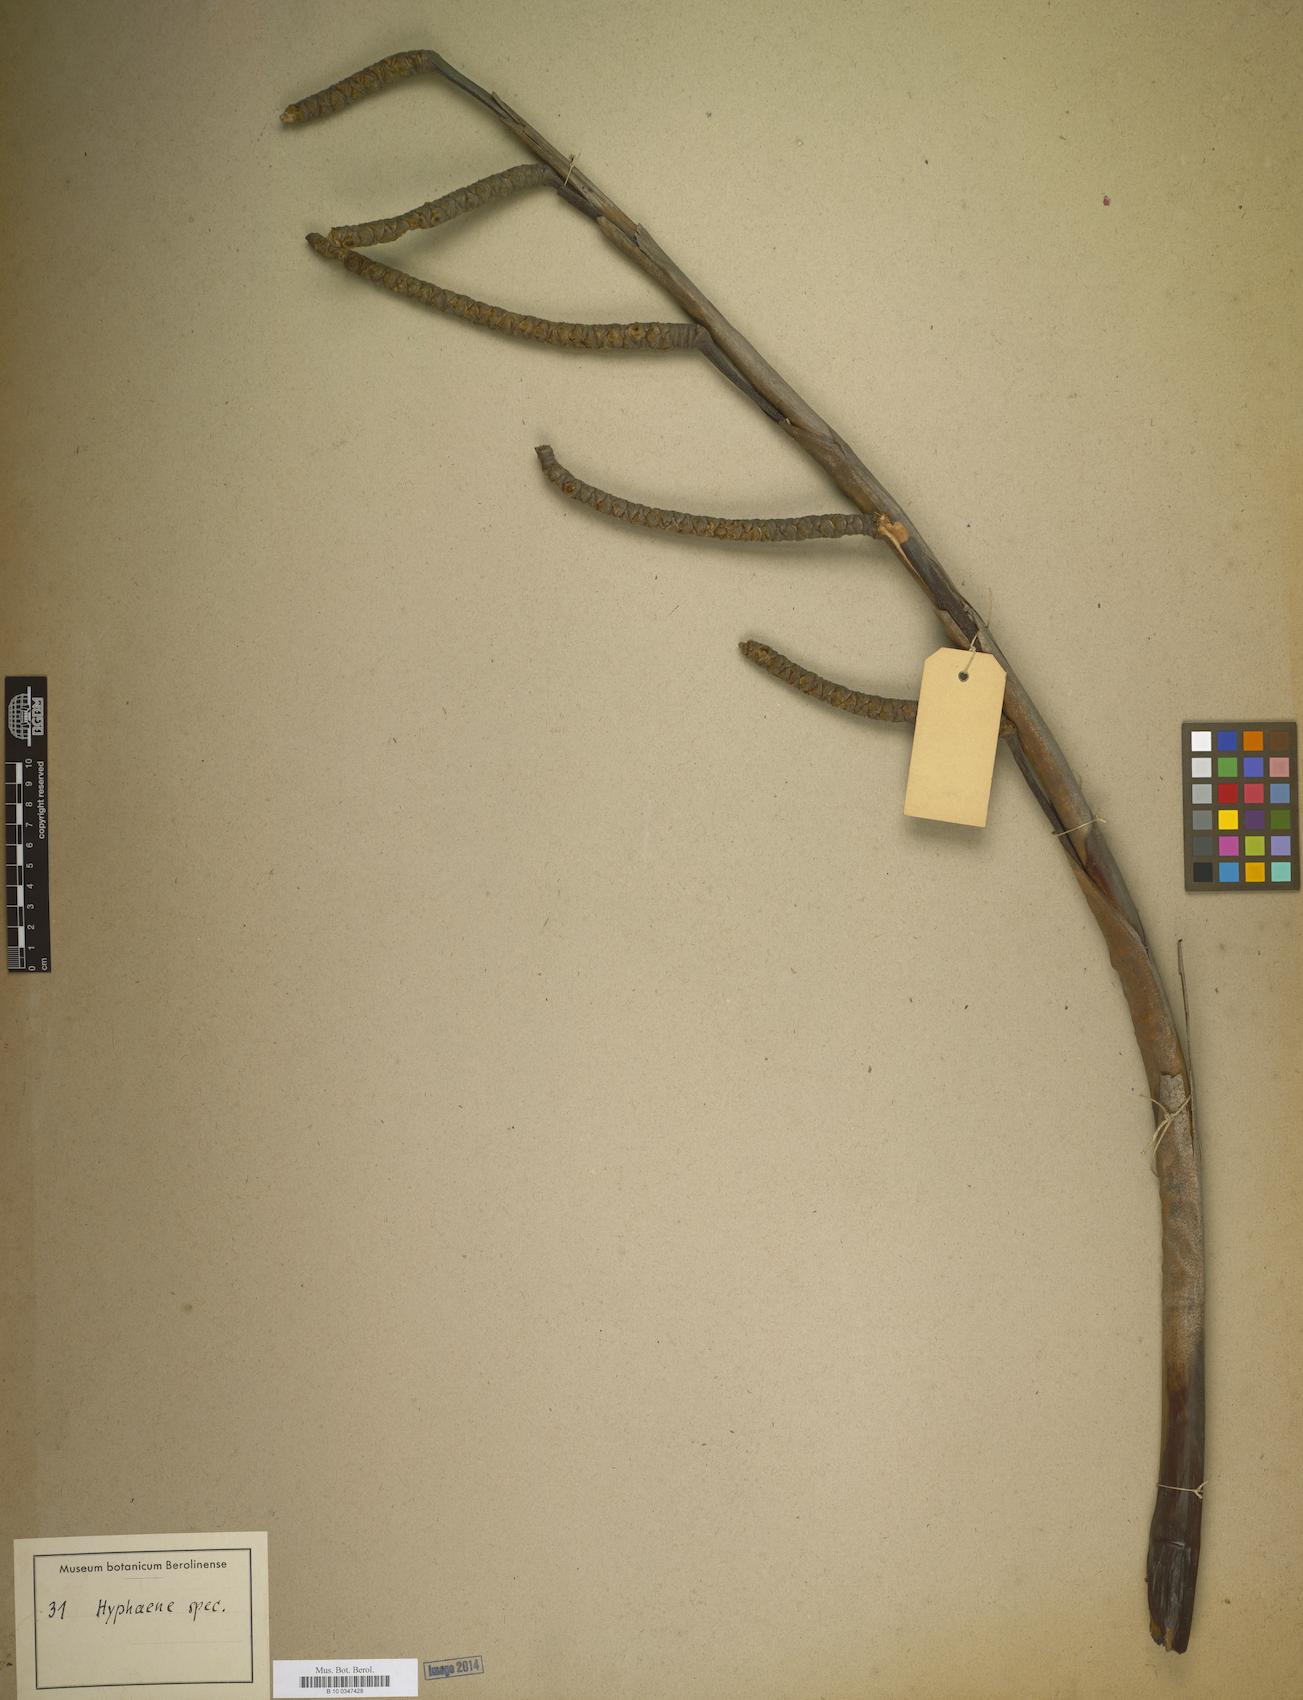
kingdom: Plantae
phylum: Tracheophyta
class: Liliopsida
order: Arecales
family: Arecaceae
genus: Hyphaene
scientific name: Hyphaene
